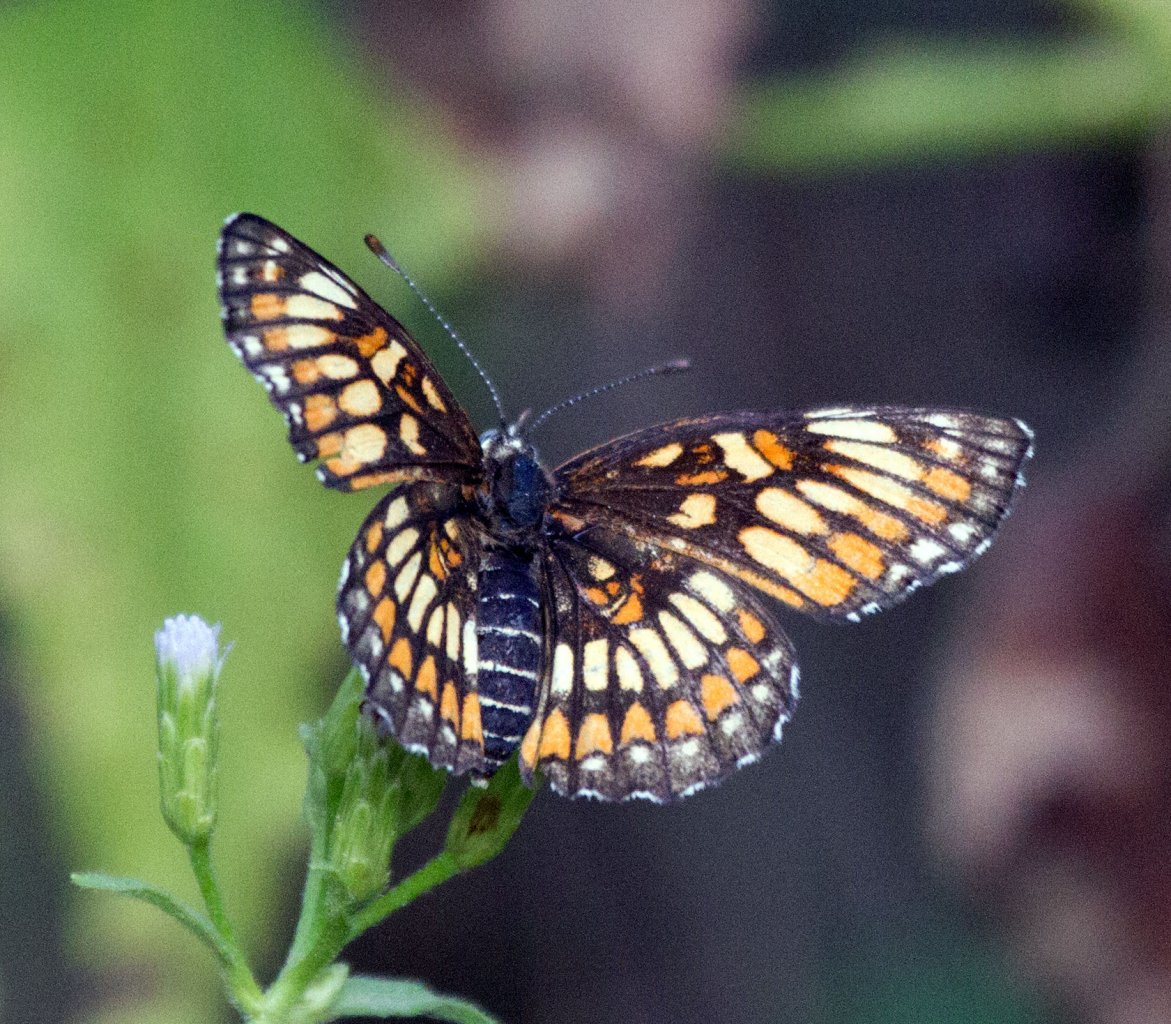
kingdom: Animalia
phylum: Arthropoda
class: Insecta
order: Lepidoptera
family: Nymphalidae
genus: Thessalia
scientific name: Thessalia theona
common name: Theona Checkerspot
